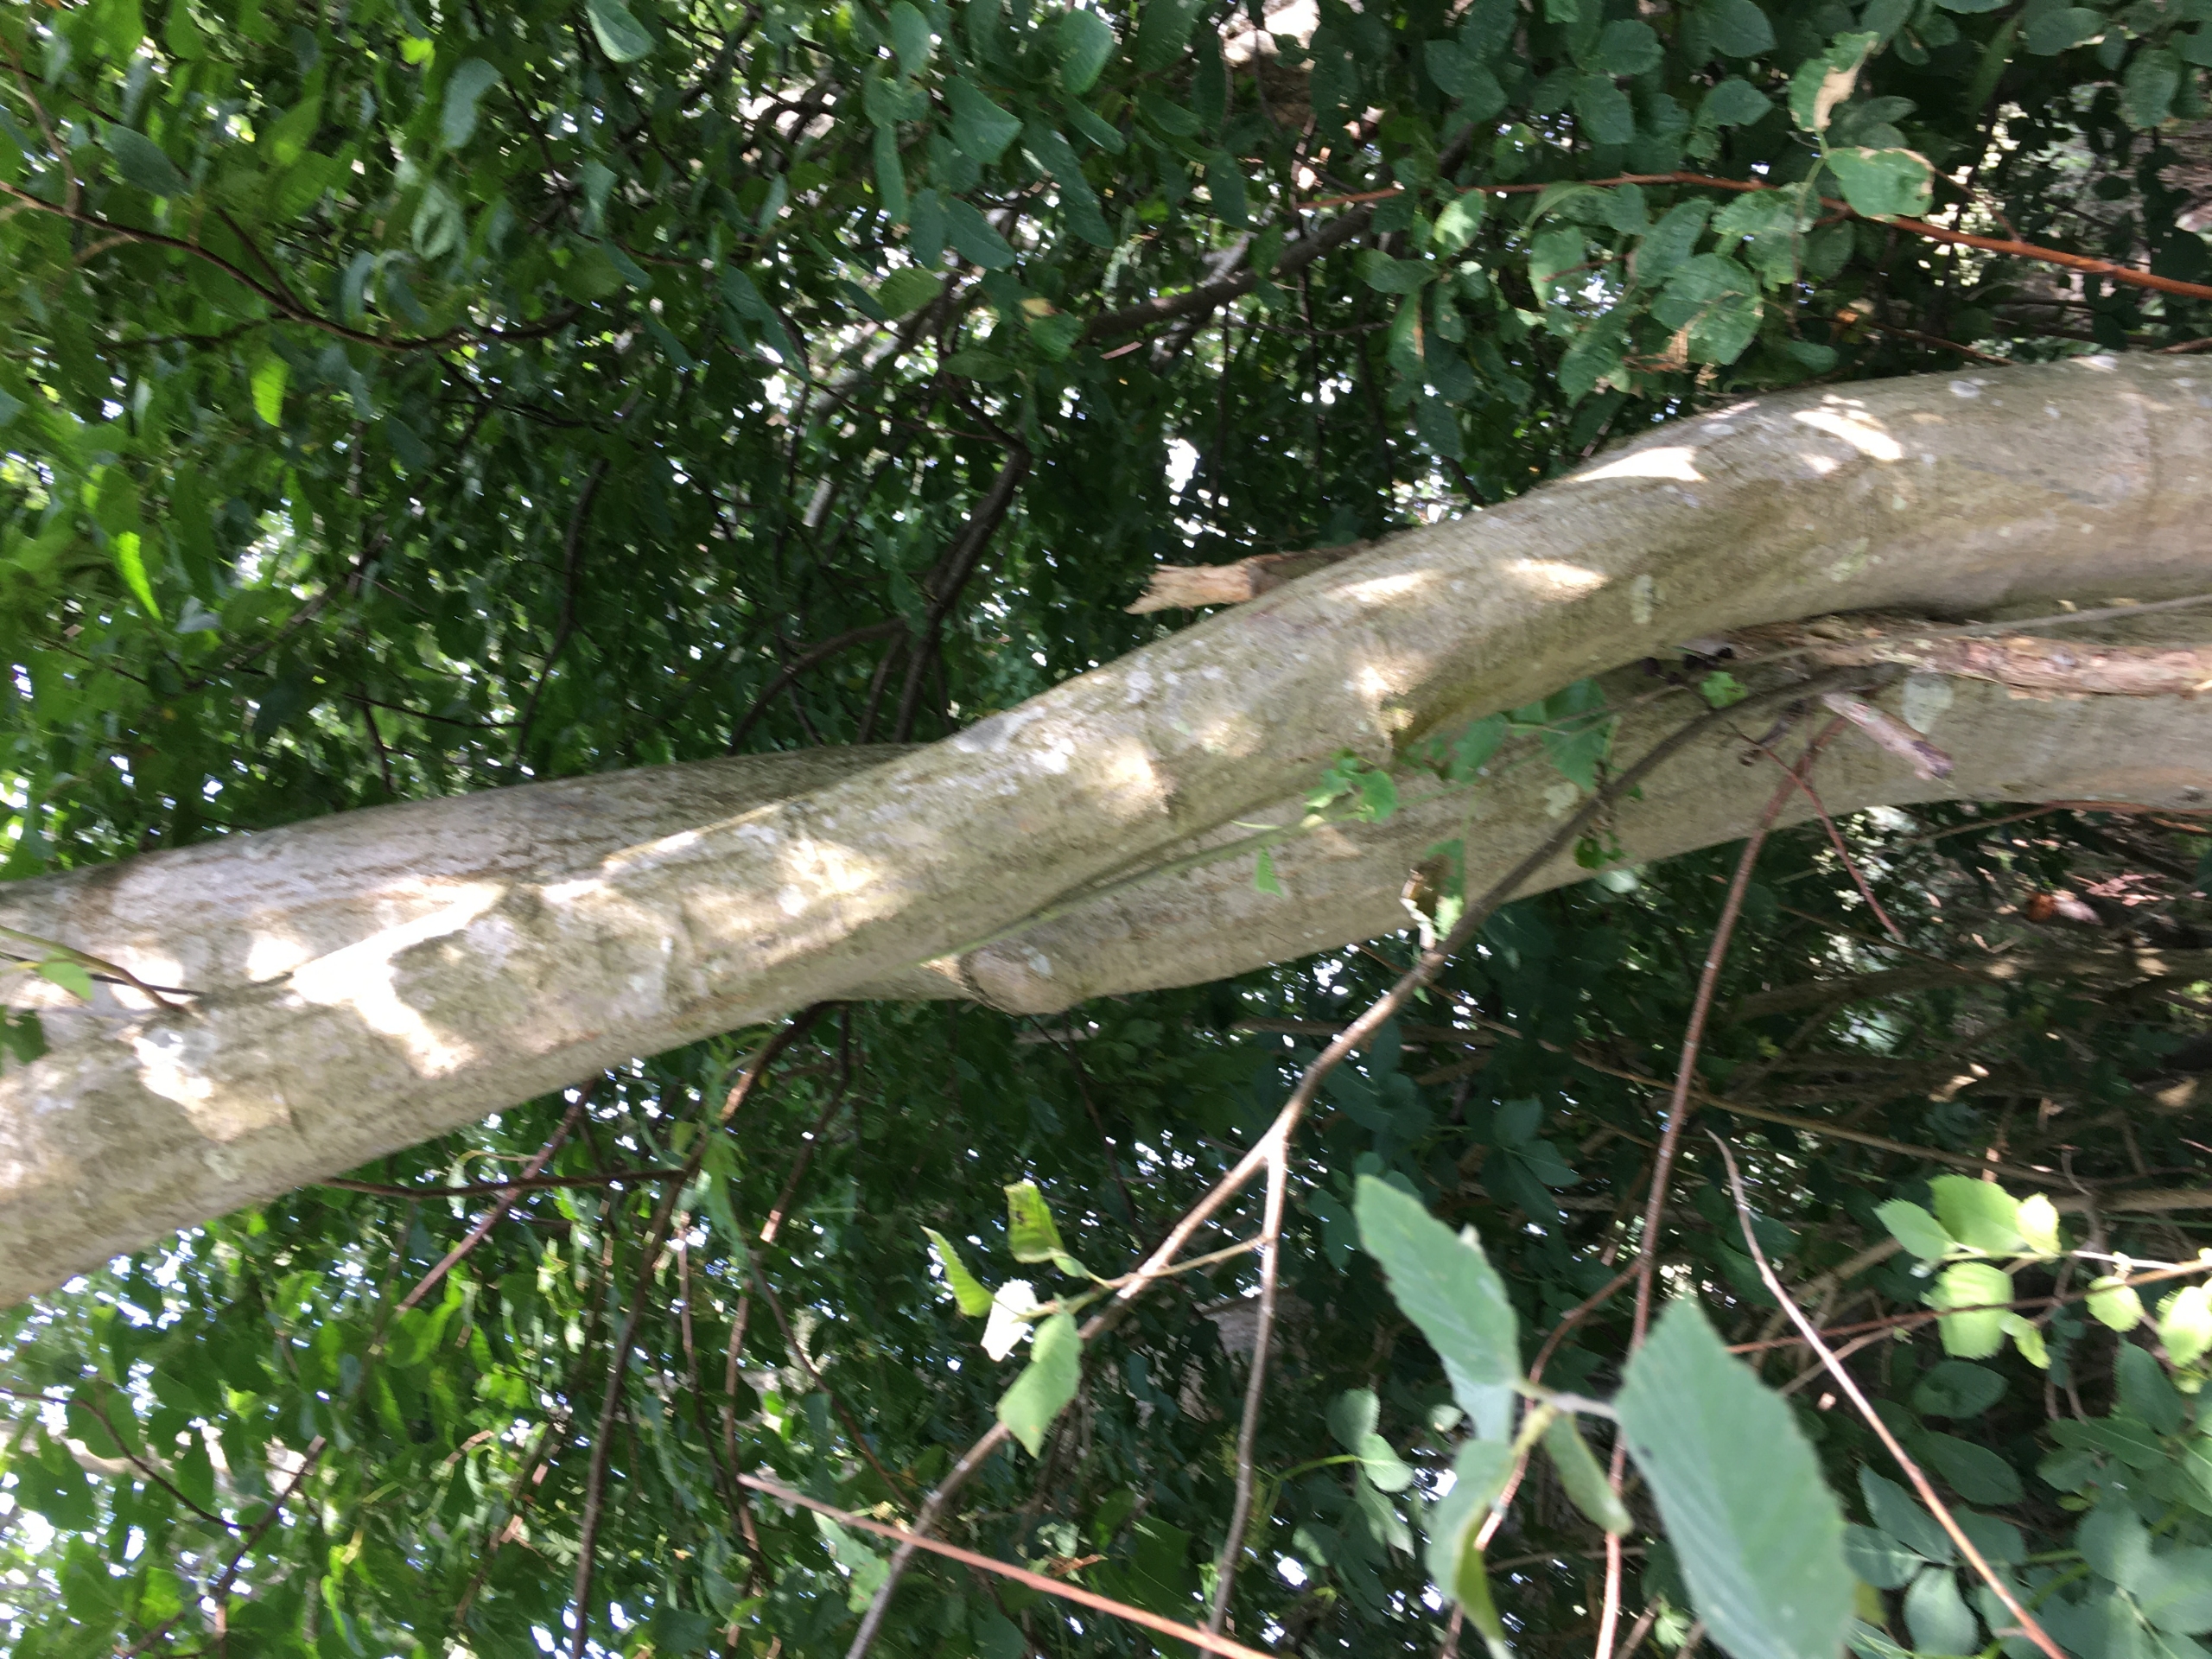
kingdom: Plantae
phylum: Tracheophyta
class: Magnoliopsida
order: Fagales
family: Betulaceae
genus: Alnus
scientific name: Alnus incana
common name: Grå-el/hvid-el
